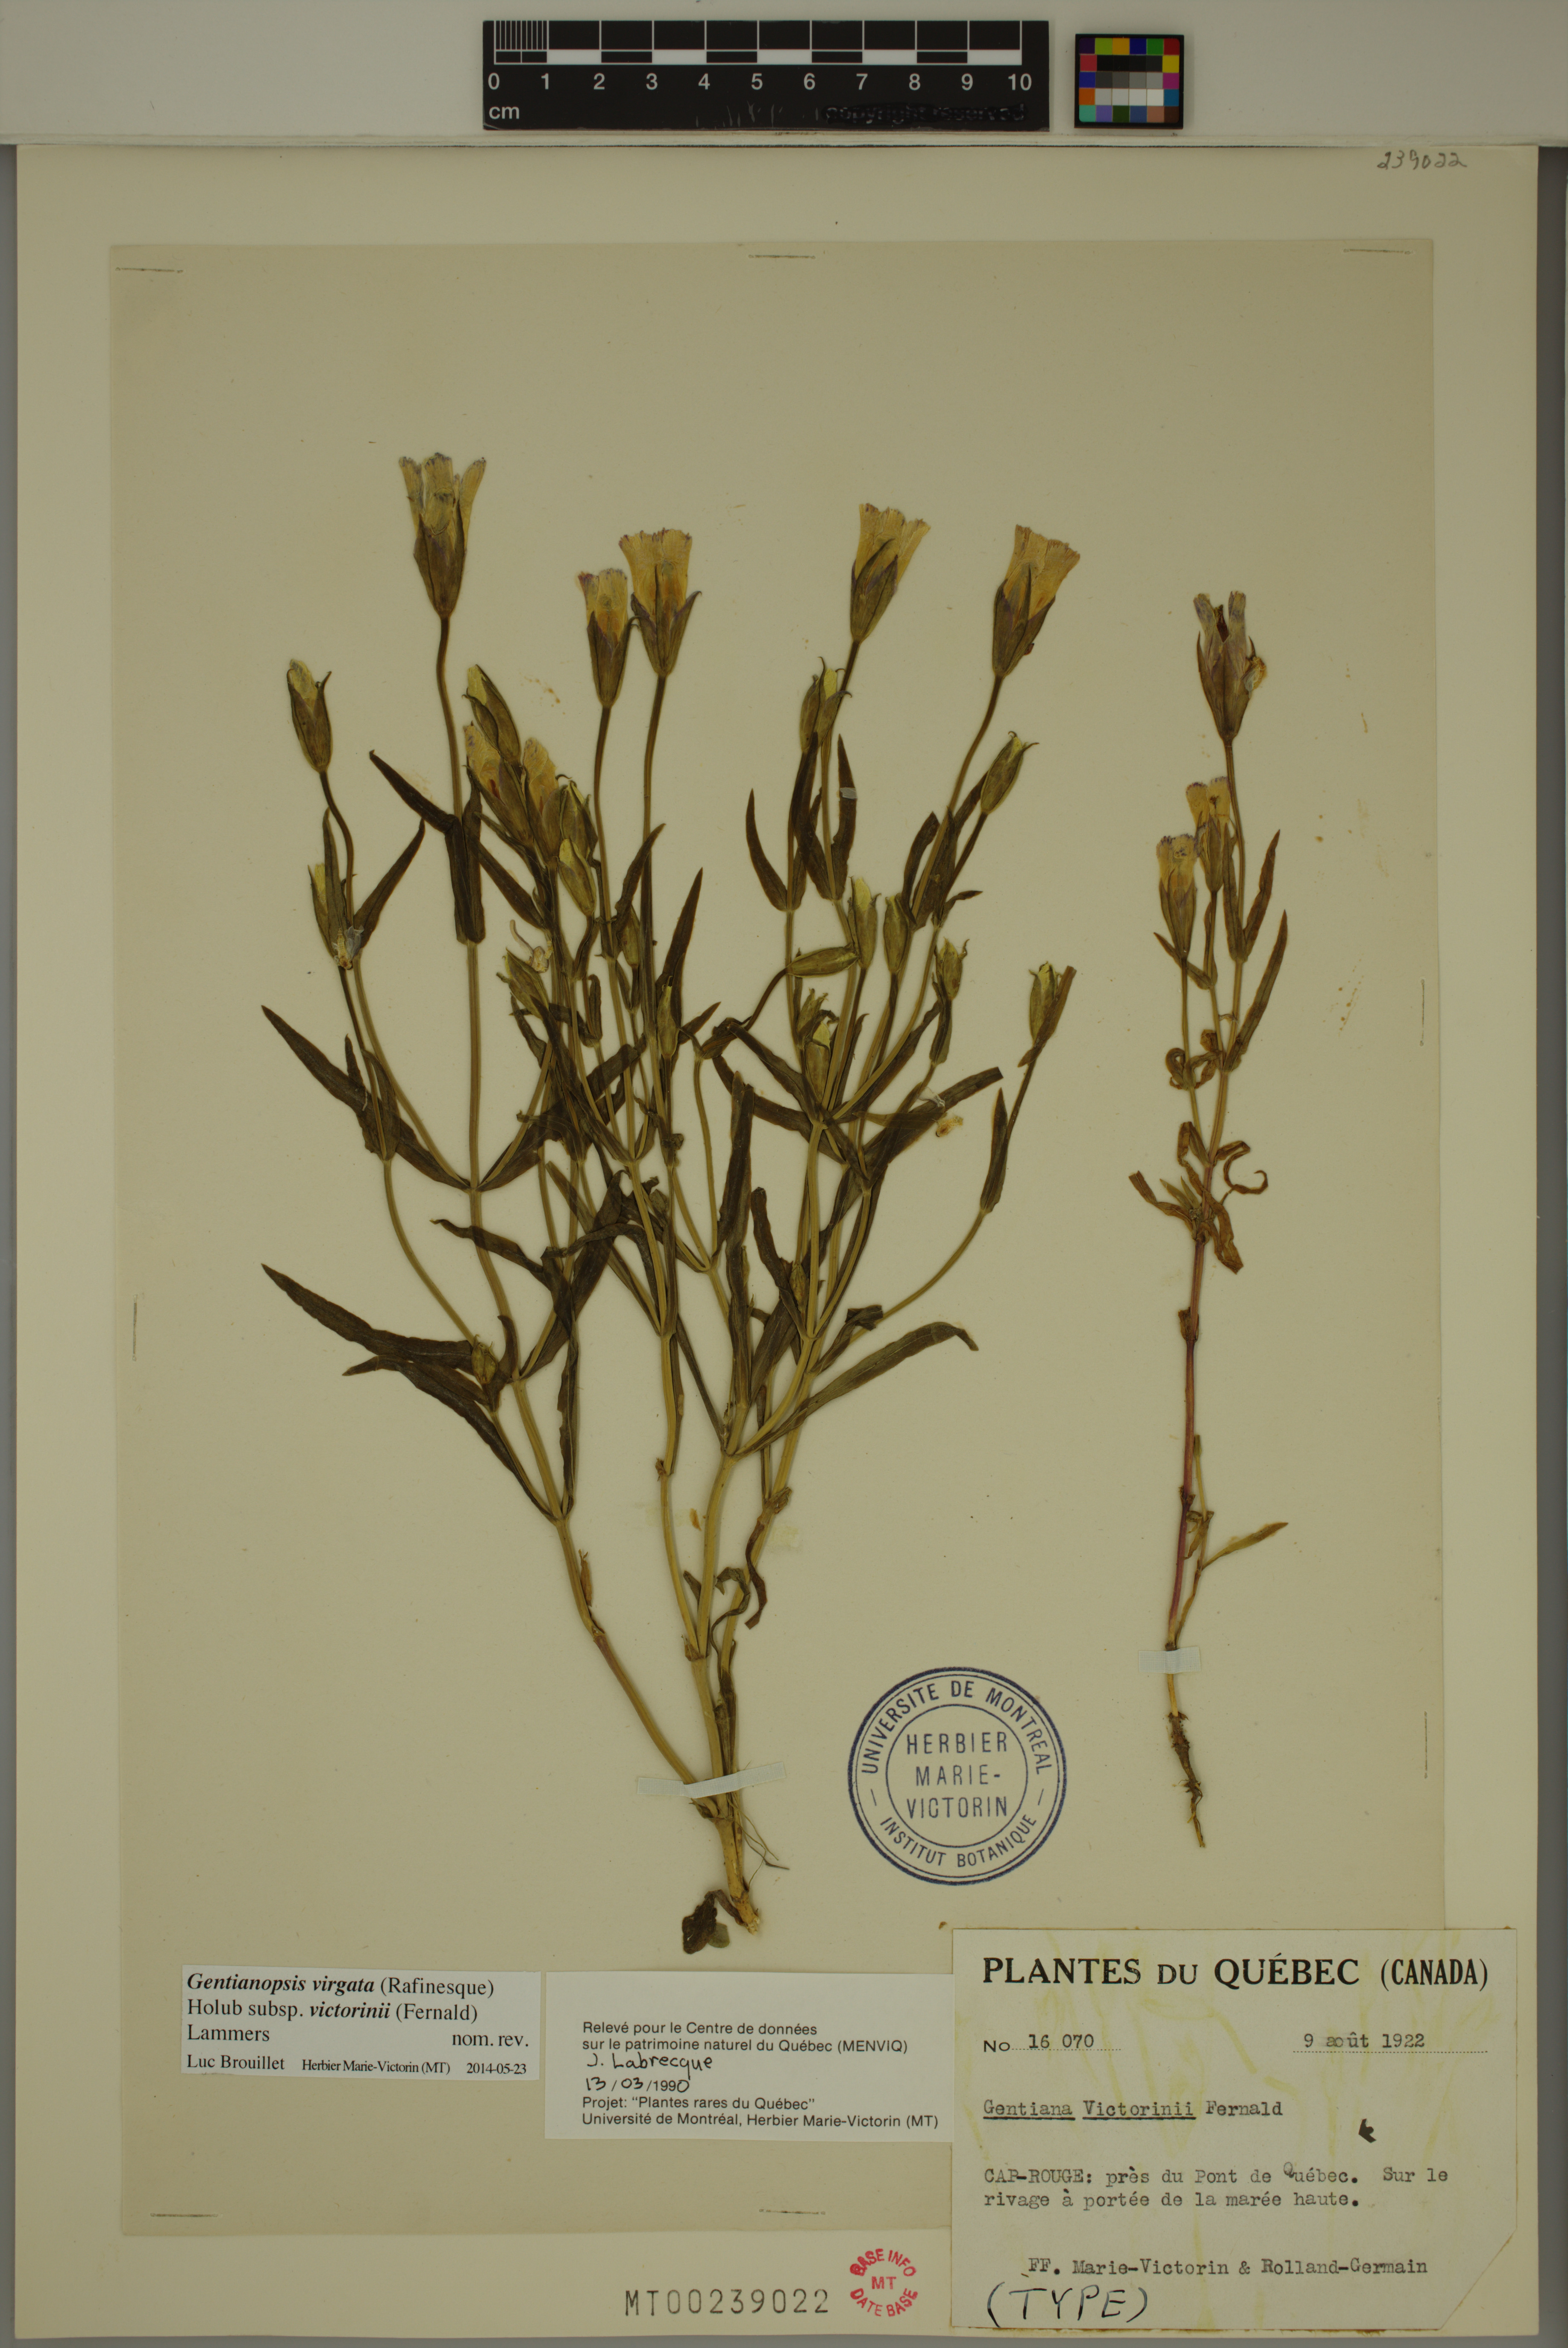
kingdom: Plantae
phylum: Tracheophyta
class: Magnoliopsida
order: Gentianales
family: Gentianaceae
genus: Gentianopsis
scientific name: Gentianopsis victorinii
